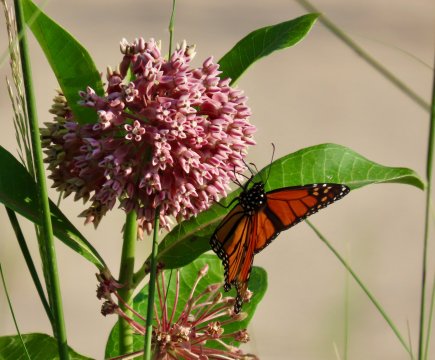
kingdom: Animalia
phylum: Arthropoda
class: Insecta
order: Lepidoptera
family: Nymphalidae
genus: Danaus
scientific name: Danaus plexippus
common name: Monarch
